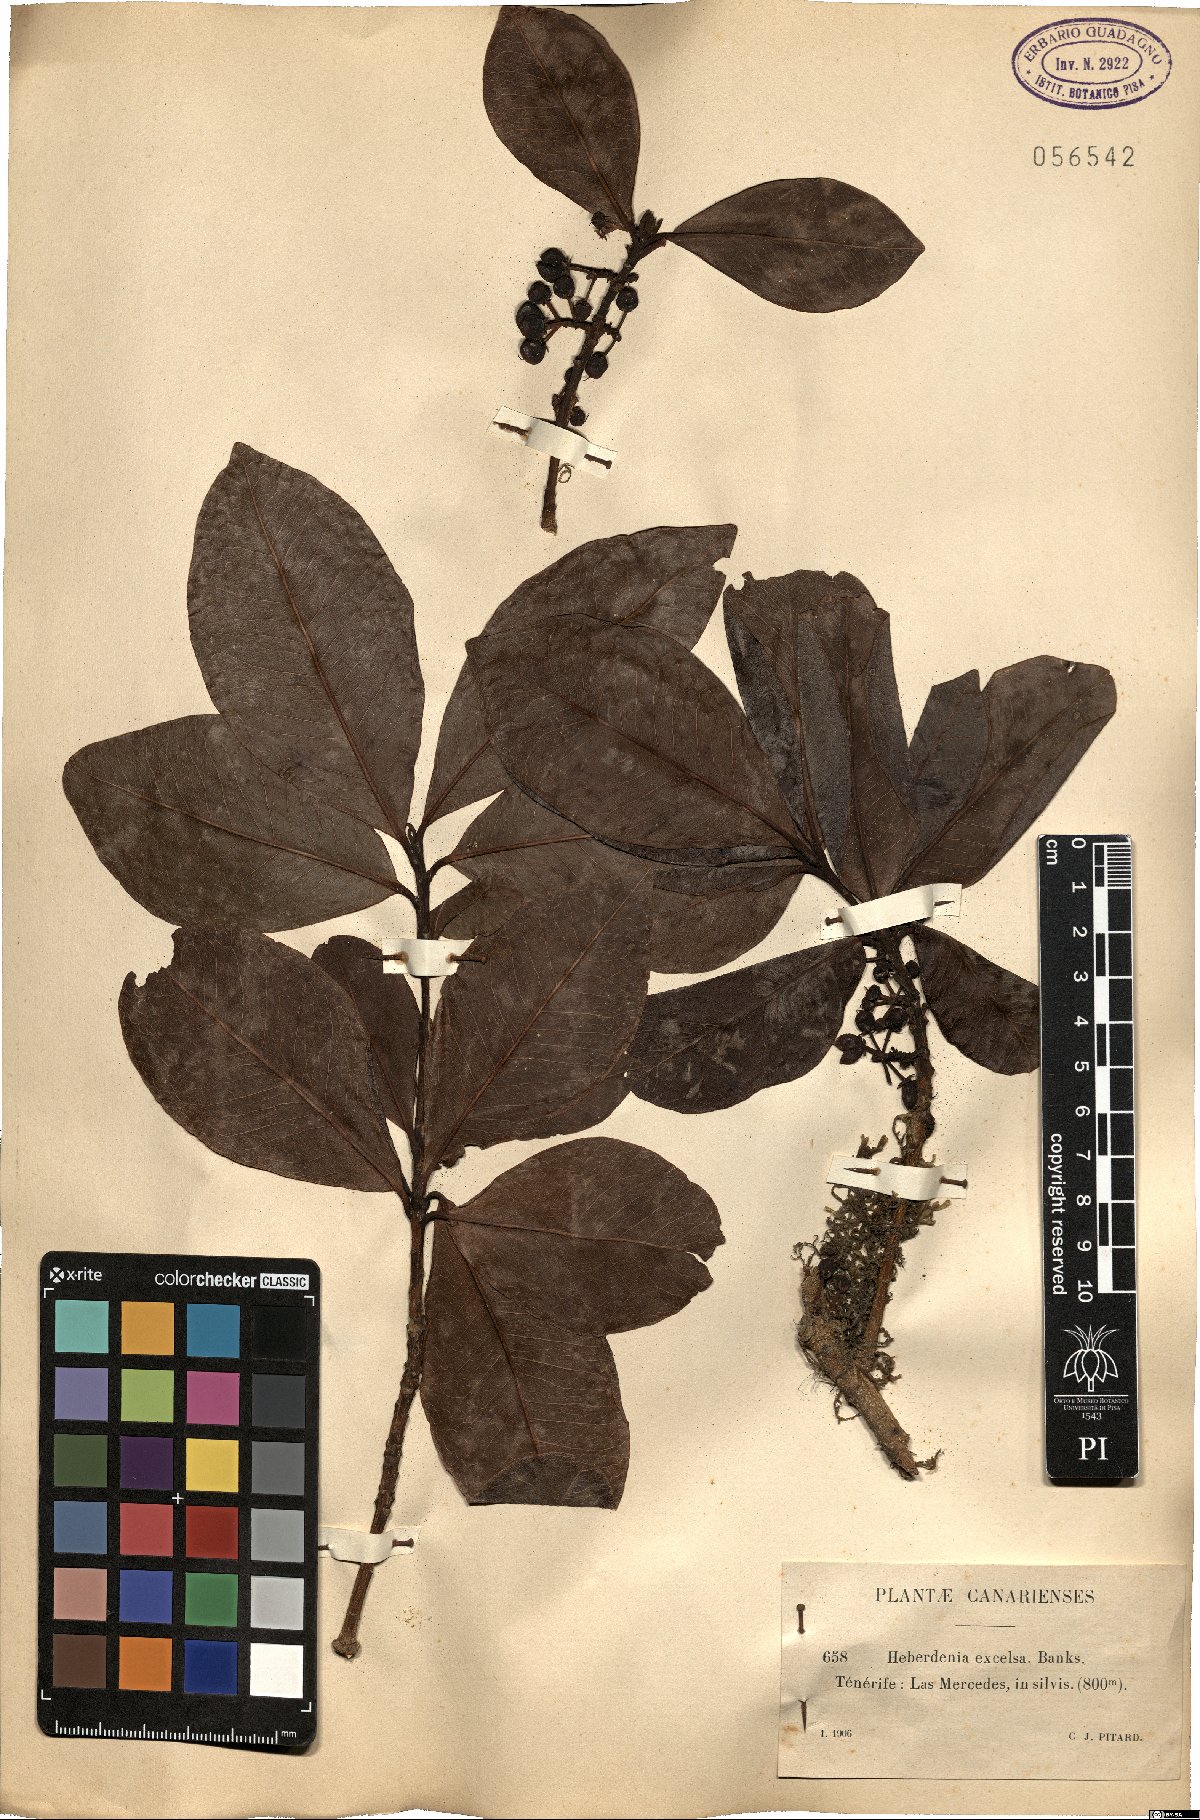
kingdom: Plantae
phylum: Tracheophyta
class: Magnoliopsida
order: Ericales
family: Primulaceae
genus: Heberdenia
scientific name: Heberdenia excelsa
